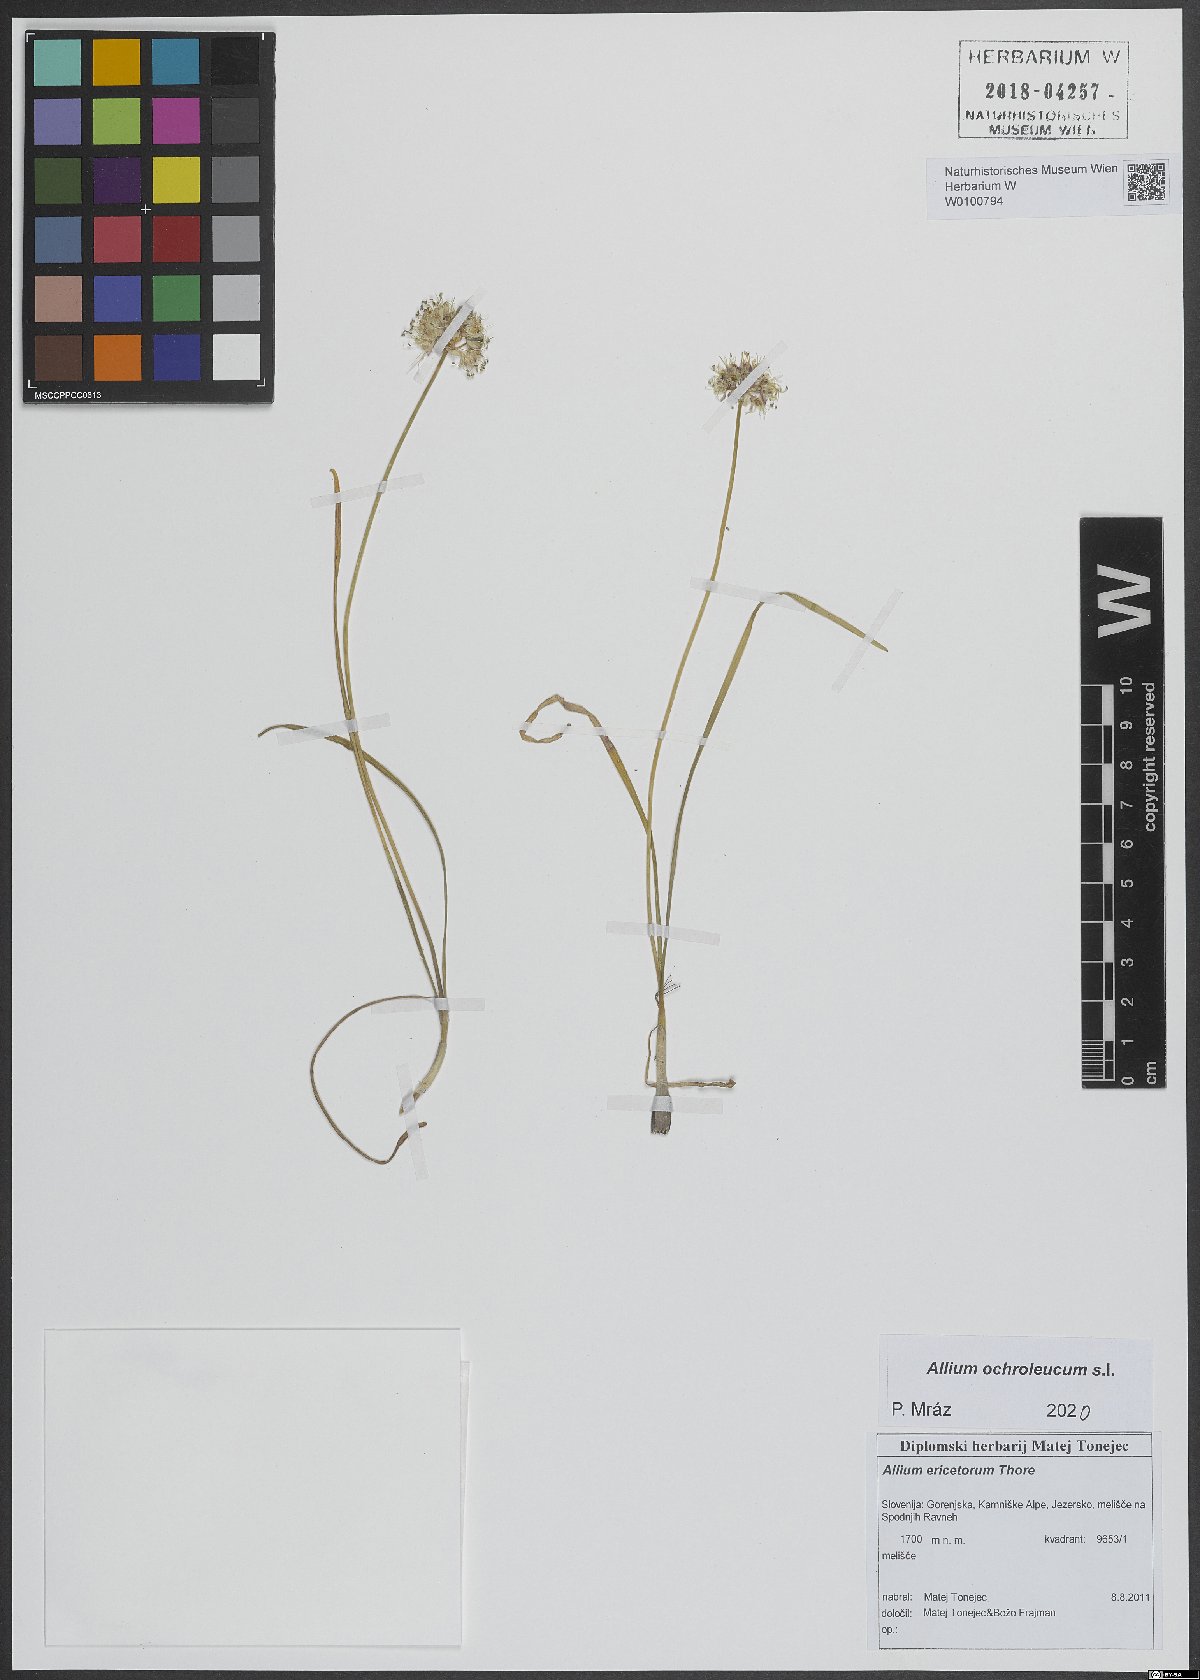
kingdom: Plantae
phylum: Tracheophyta
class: Liliopsida
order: Asparagales
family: Amaryllidaceae
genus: Allium
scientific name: Allium ericetorum
